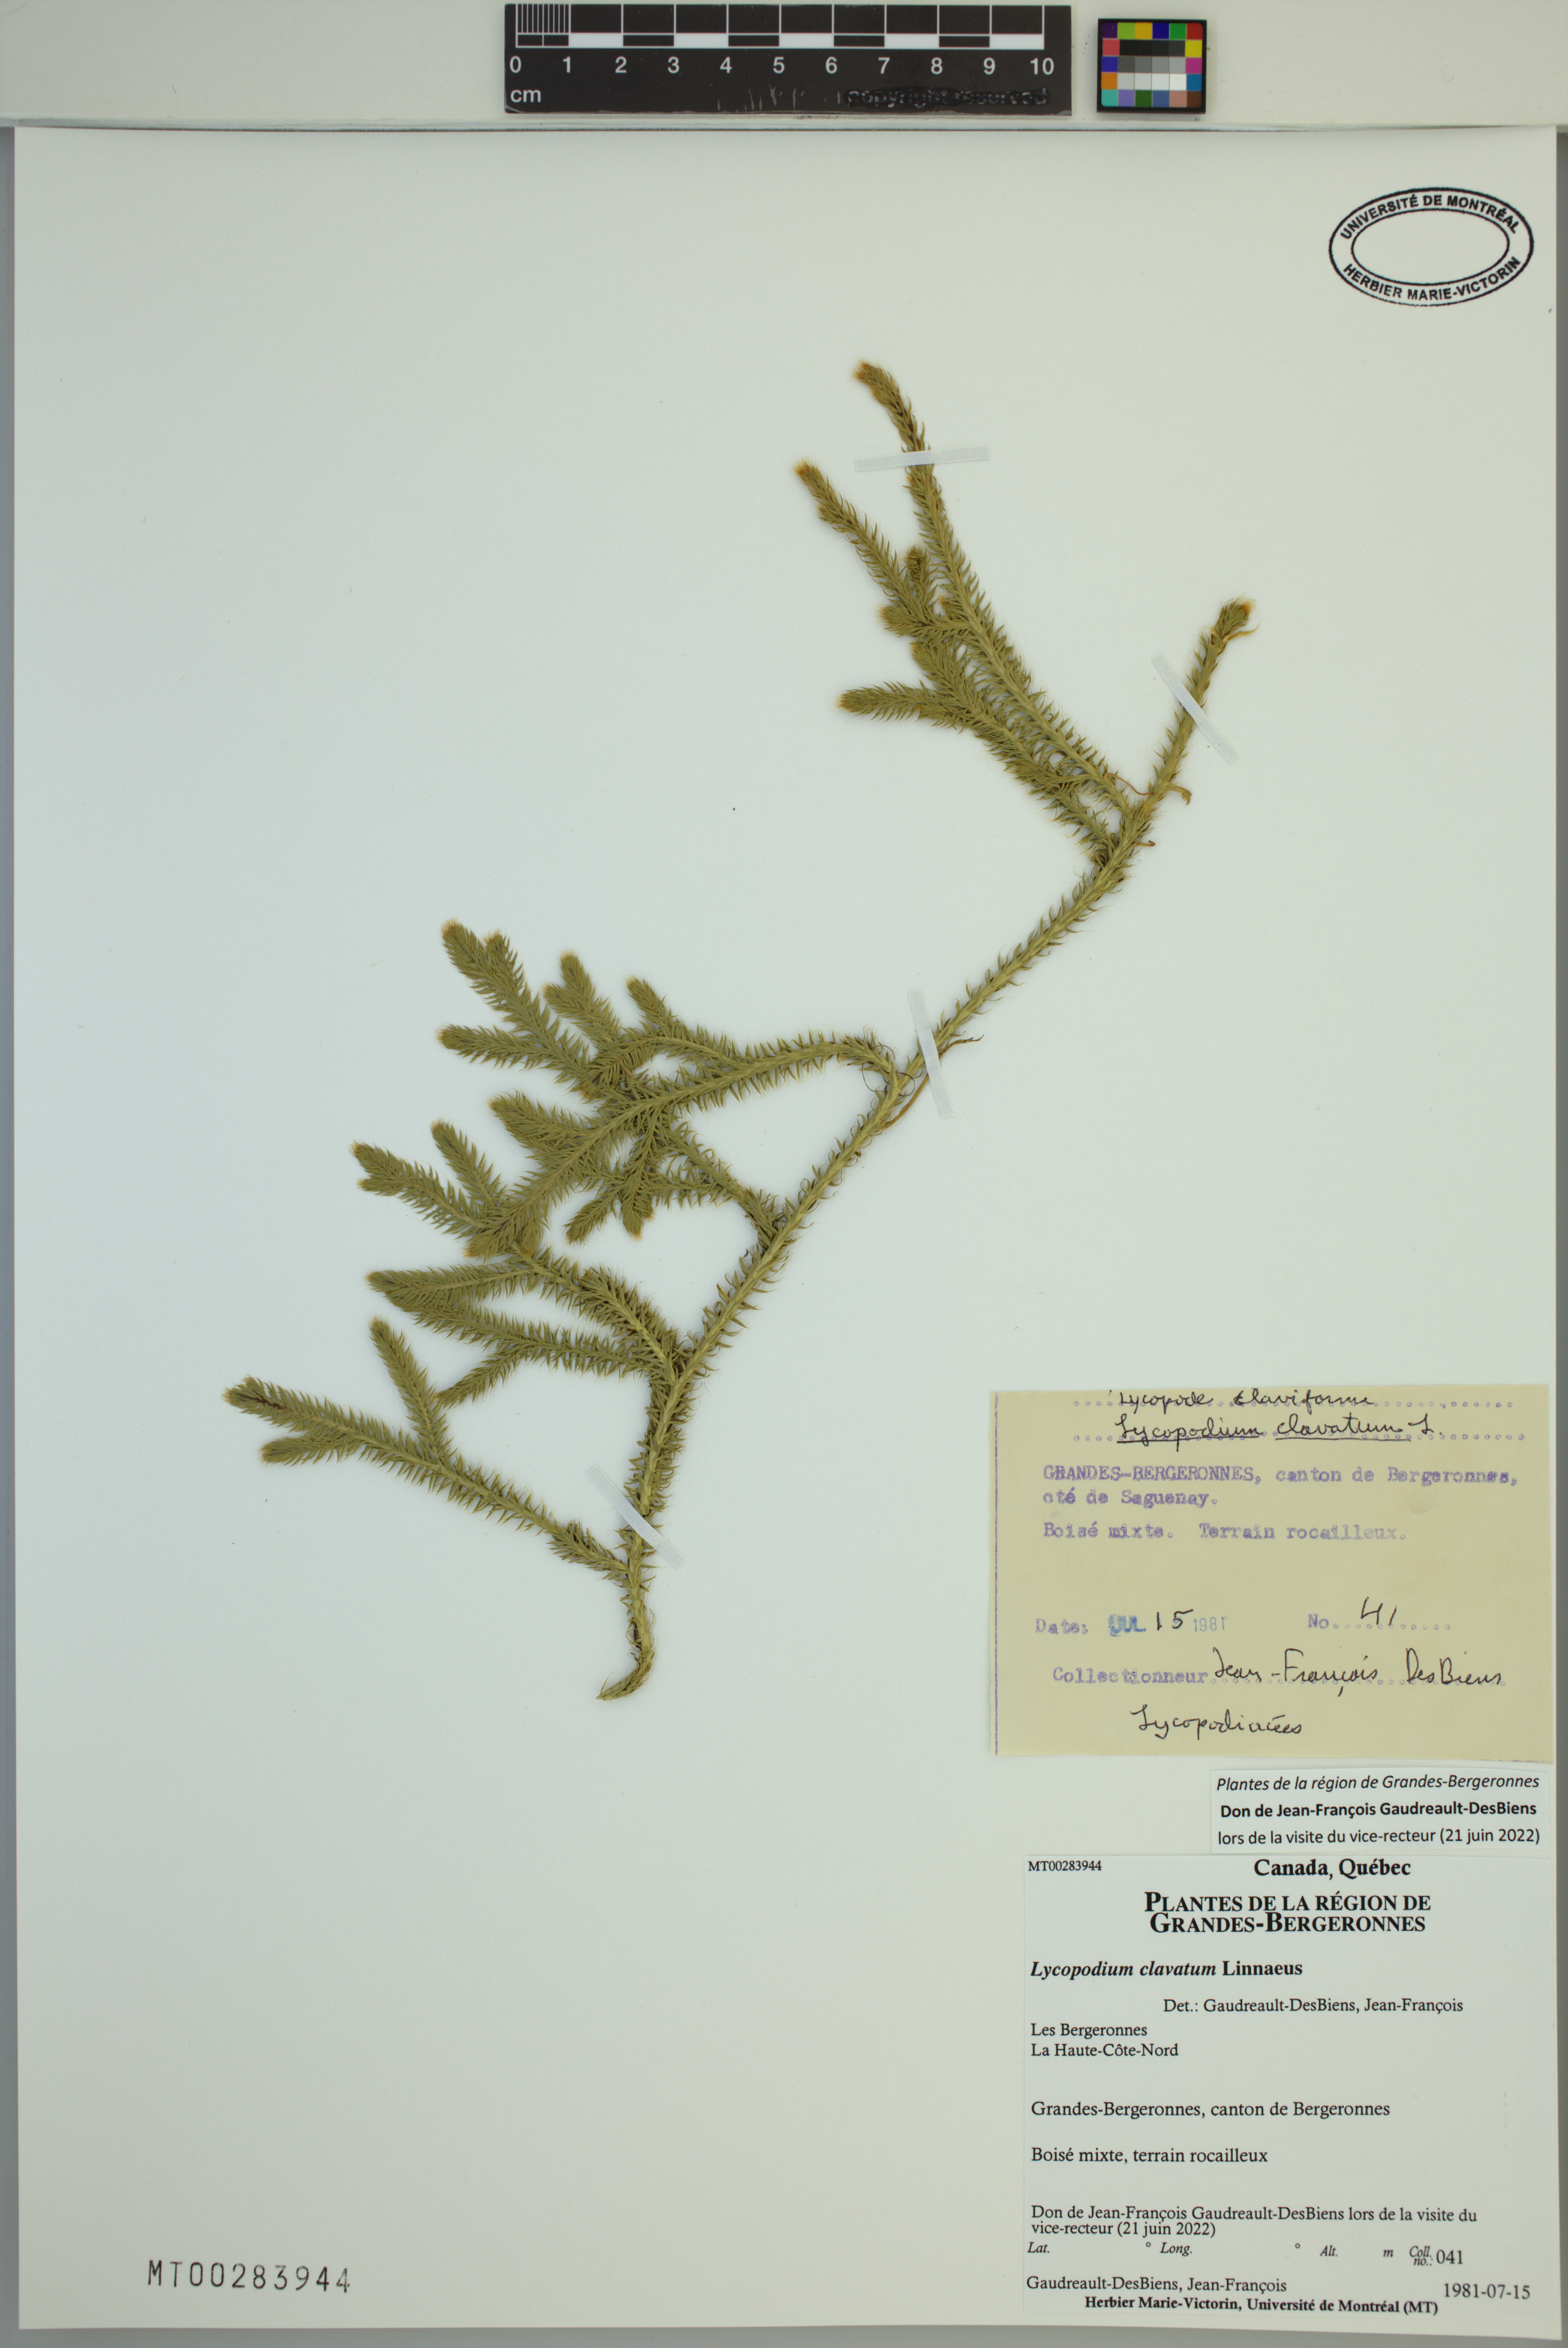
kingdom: Plantae
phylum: Tracheophyta
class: Lycopodiopsida
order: Lycopodiales
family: Lycopodiaceae
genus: Lycopodium
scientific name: Lycopodium clavatum
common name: Stag's-horn clubmoss
